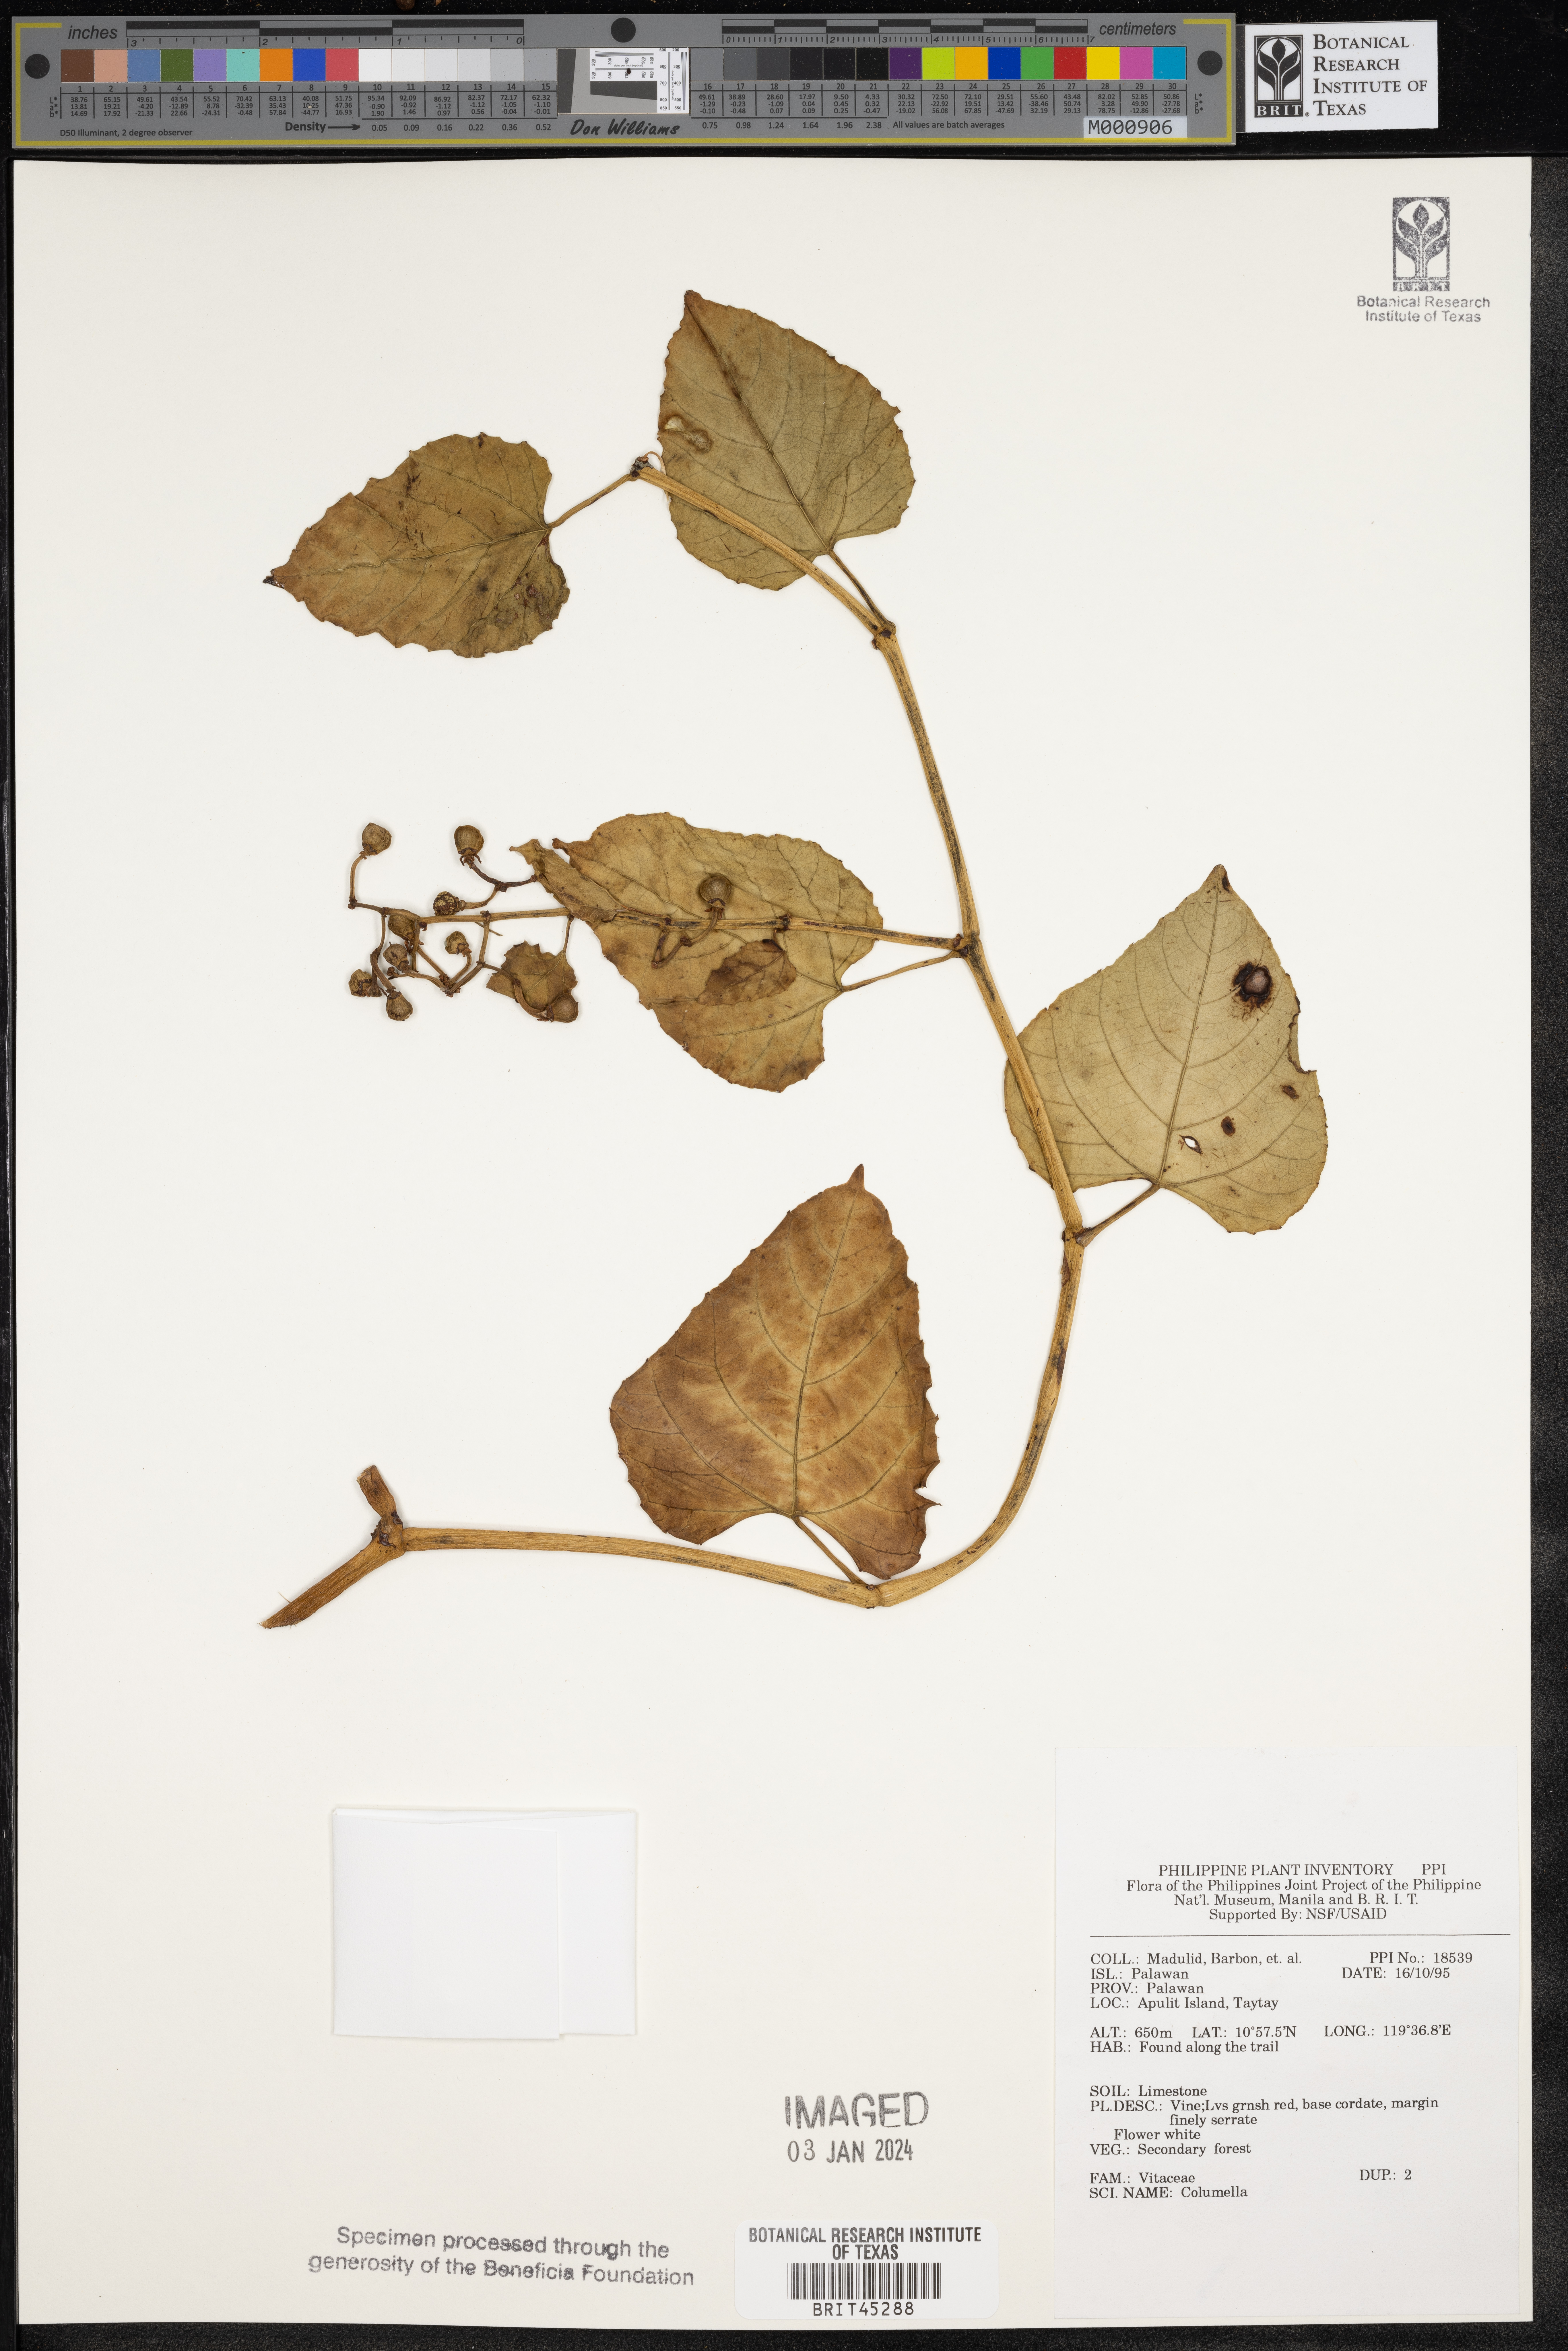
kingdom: Plantae
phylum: Tracheophyta
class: Magnoliopsida
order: Bruniales
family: Columelliaceae
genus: Columella
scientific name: Columella
